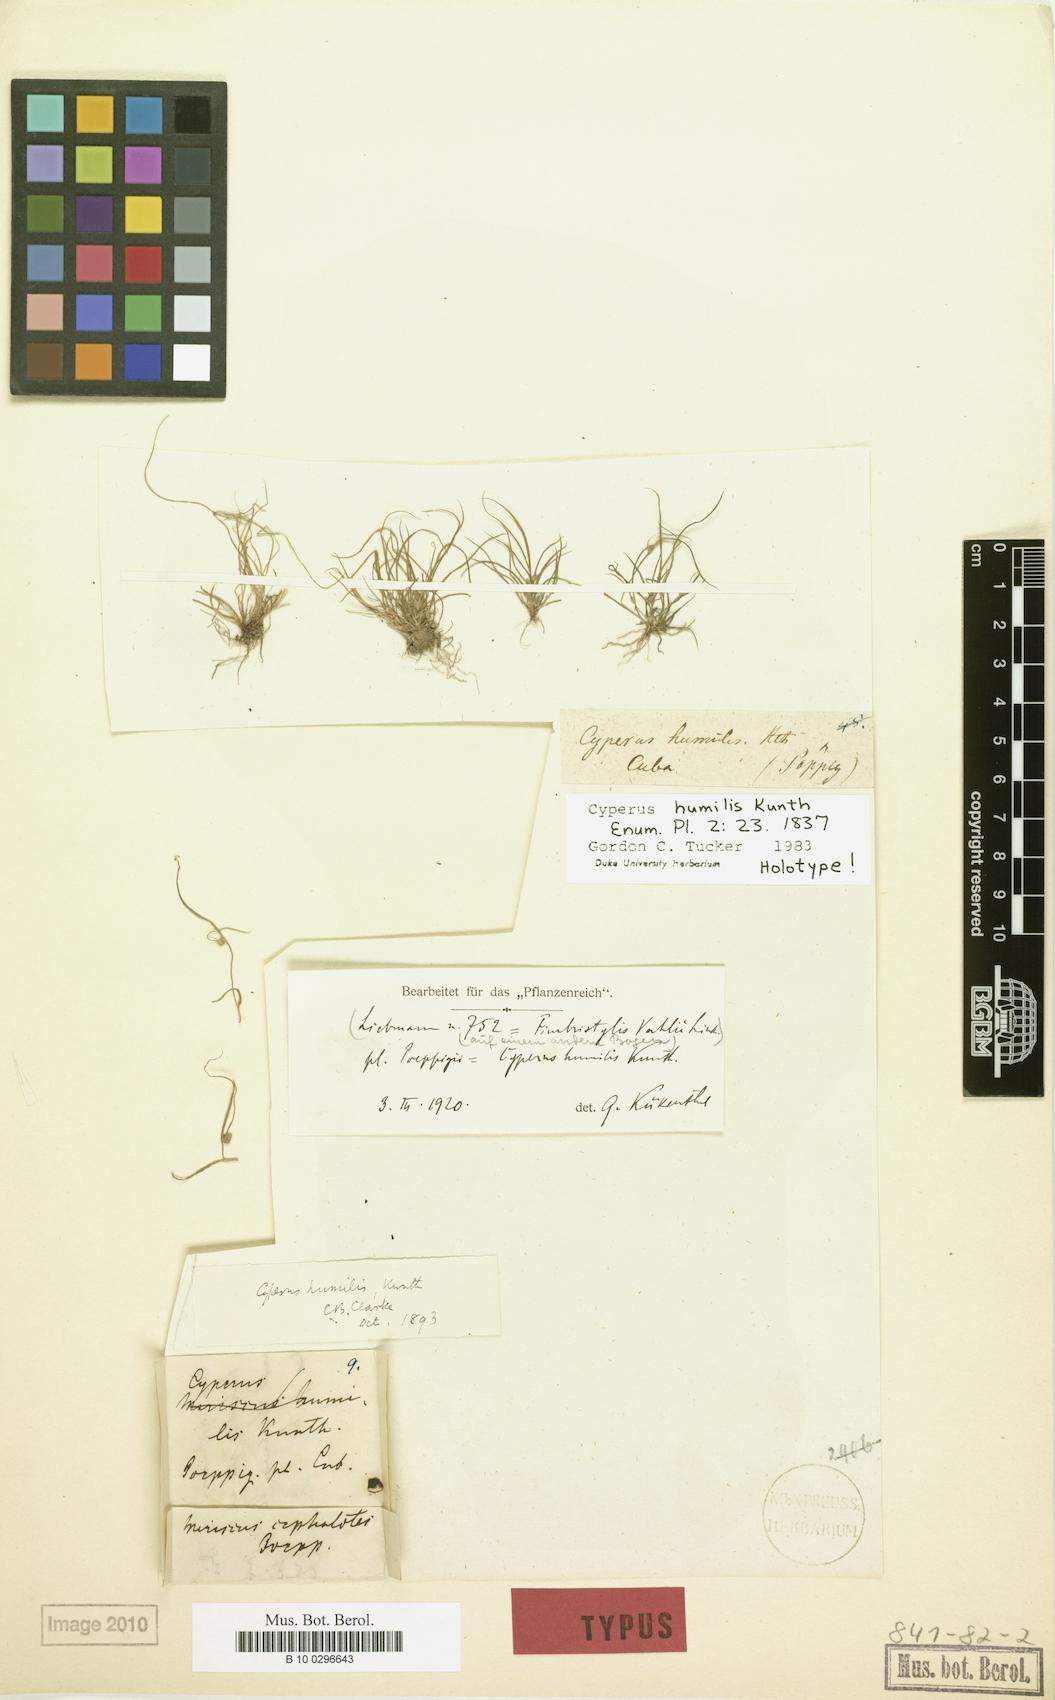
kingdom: Plantae
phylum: Tracheophyta
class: Liliopsida
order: Poales
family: Cyperaceae
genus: Cyperus
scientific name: Cyperus humilis
